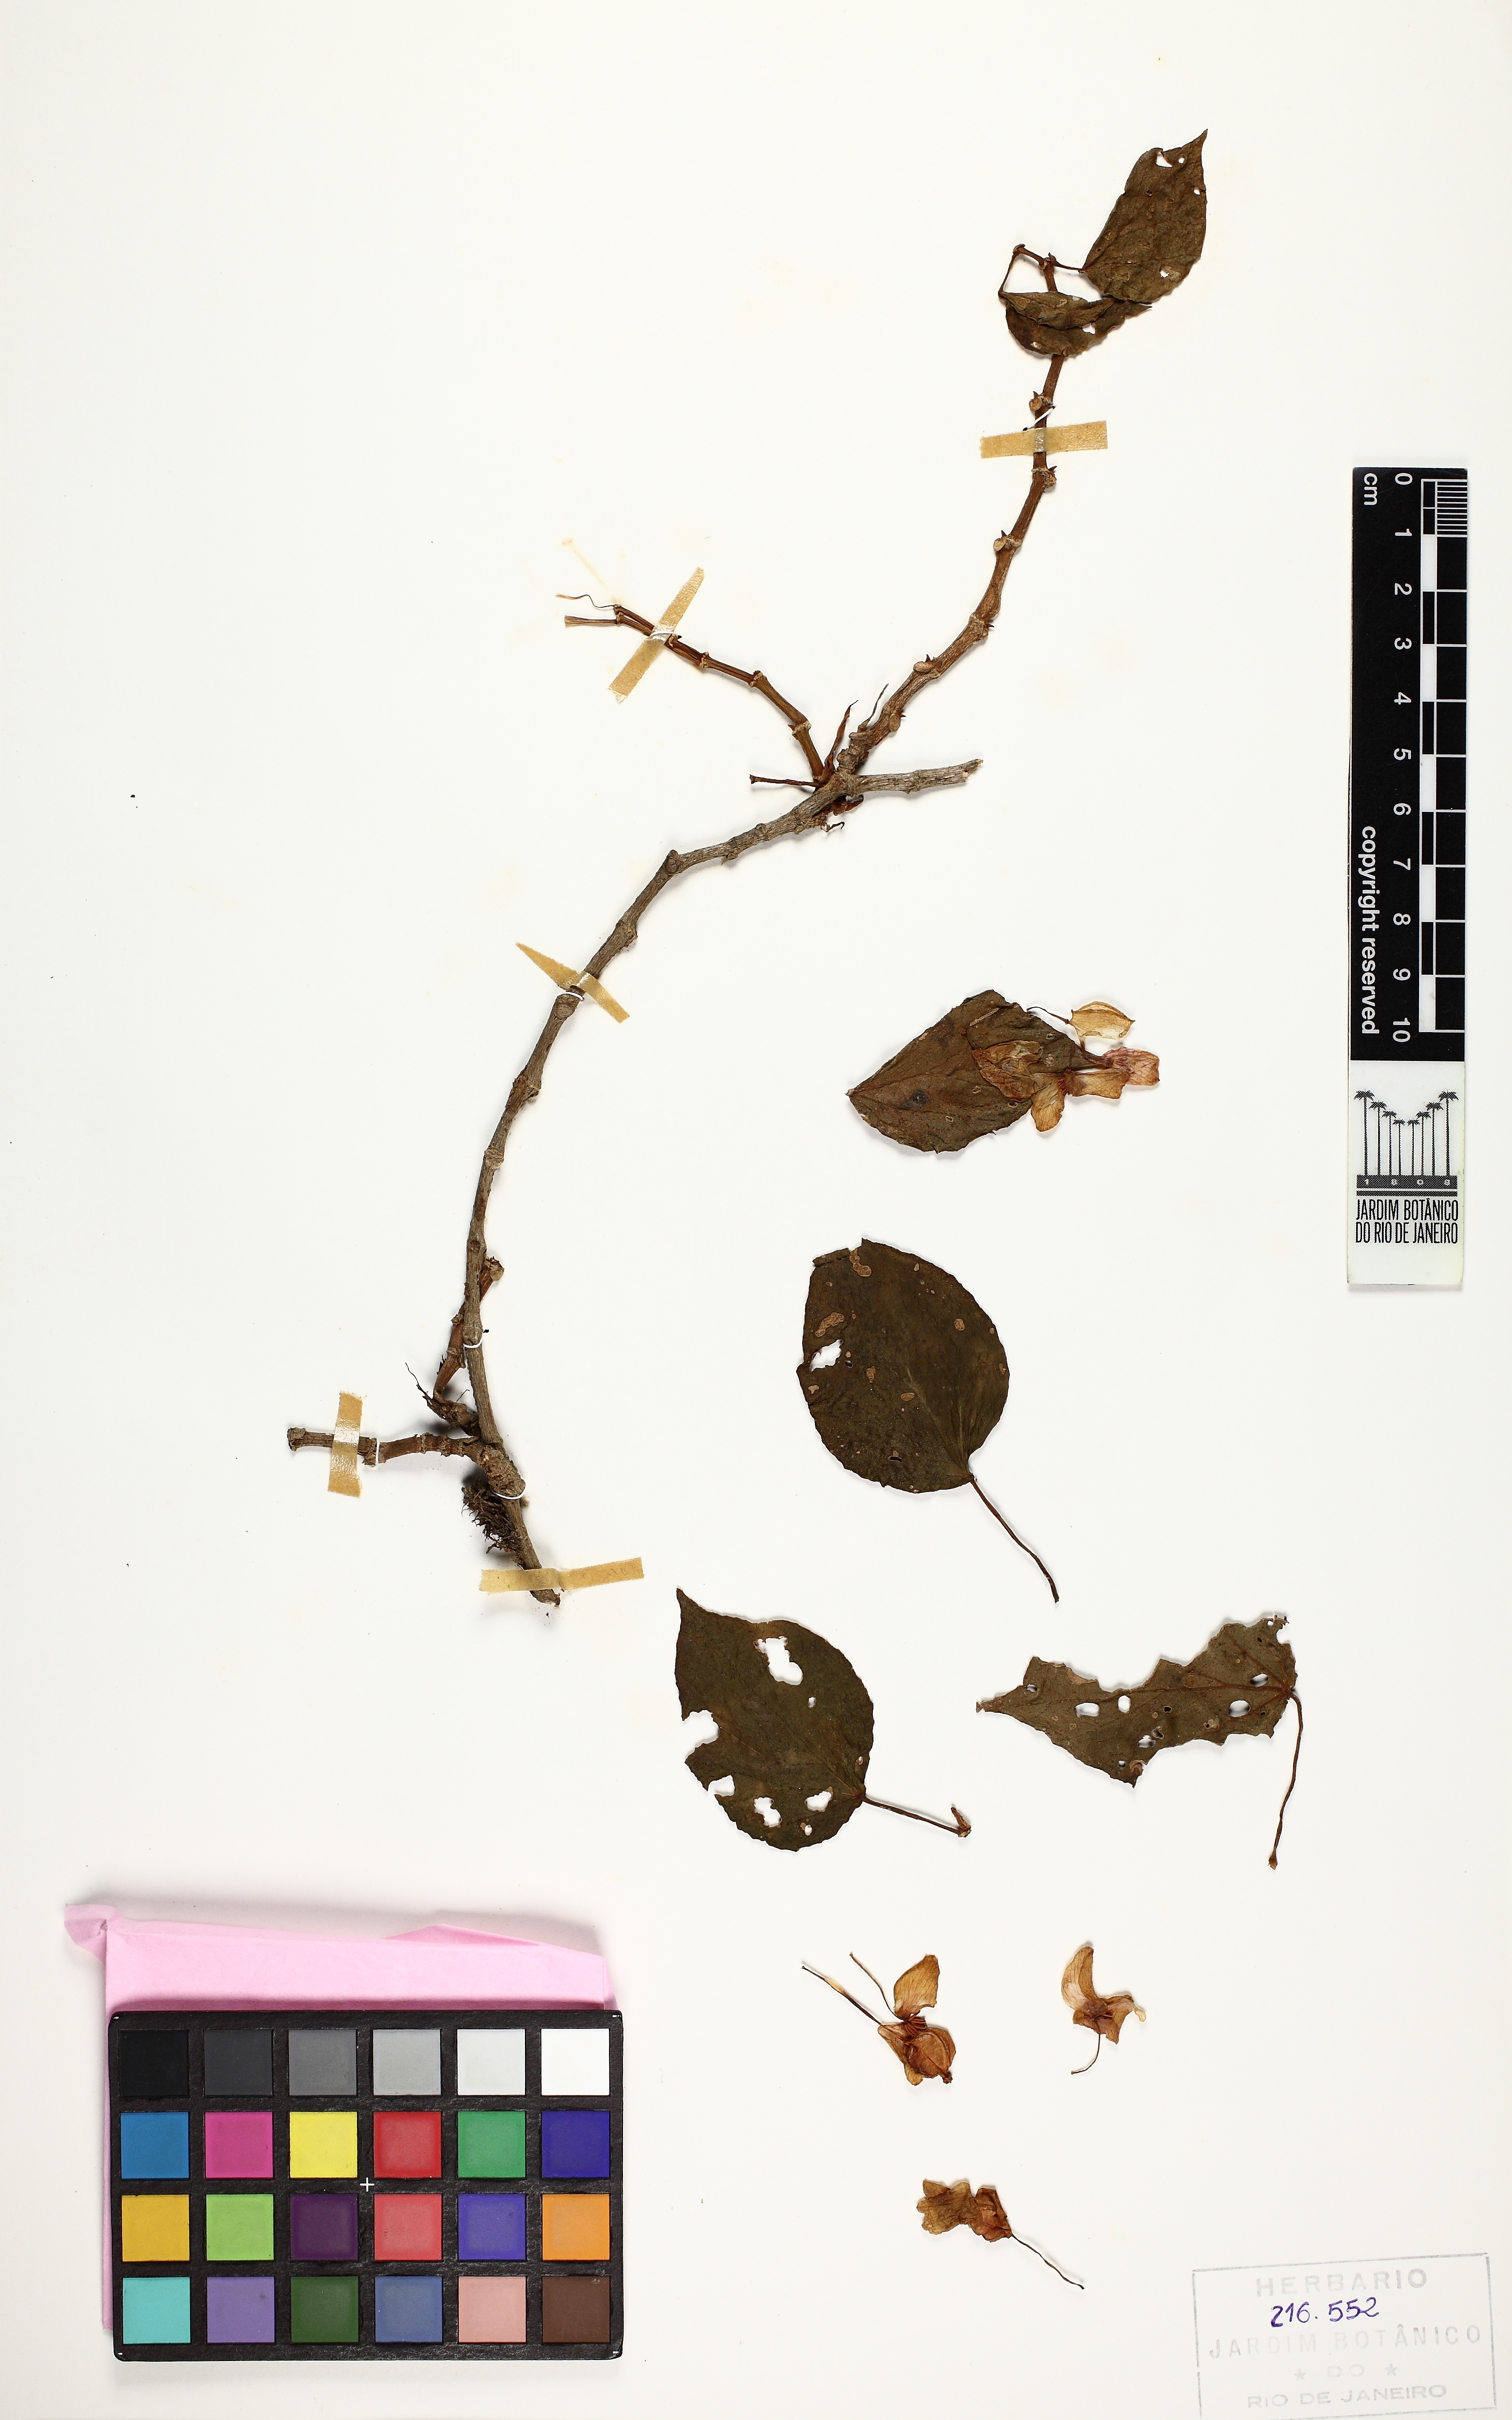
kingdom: Plantae
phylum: Tracheophyta
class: Magnoliopsida
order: Cucurbitales
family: Begoniaceae
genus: Begonia
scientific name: Begonia solananthera
